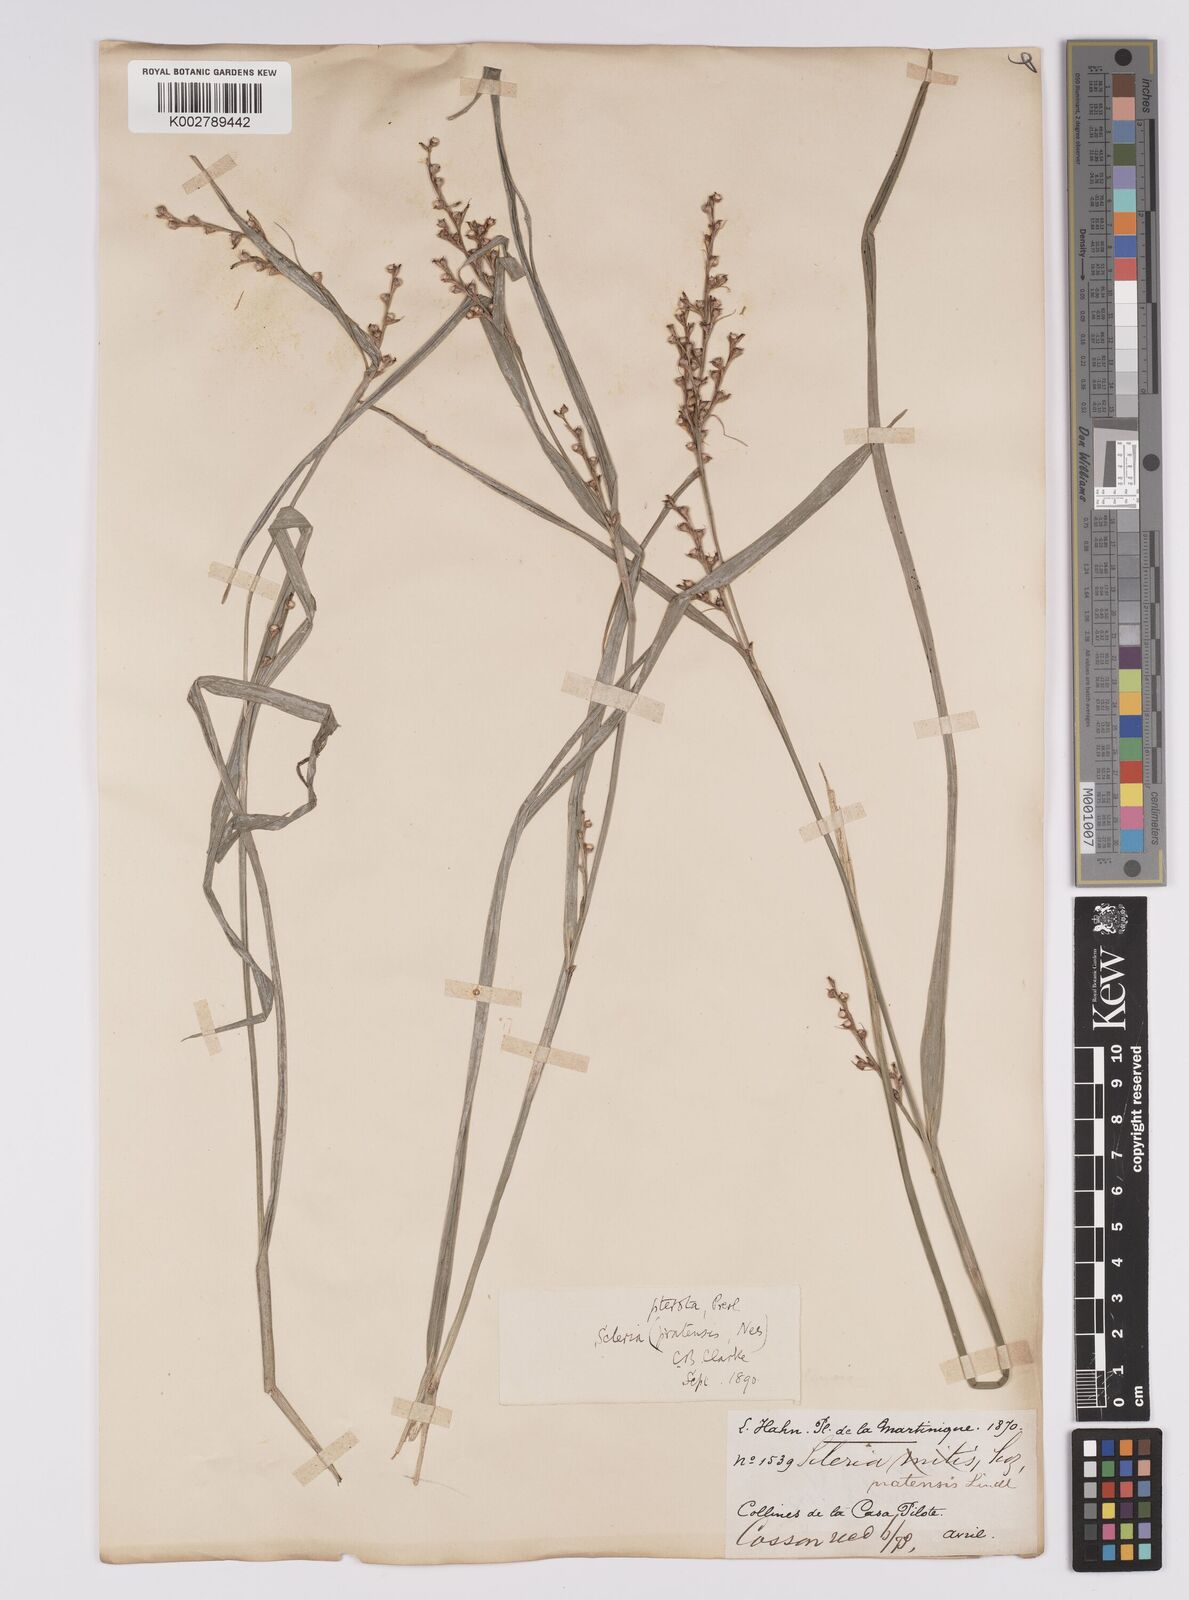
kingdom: Plantae
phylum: Tracheophyta
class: Liliopsida
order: Poales
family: Cyperaceae
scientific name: Cyperaceae
